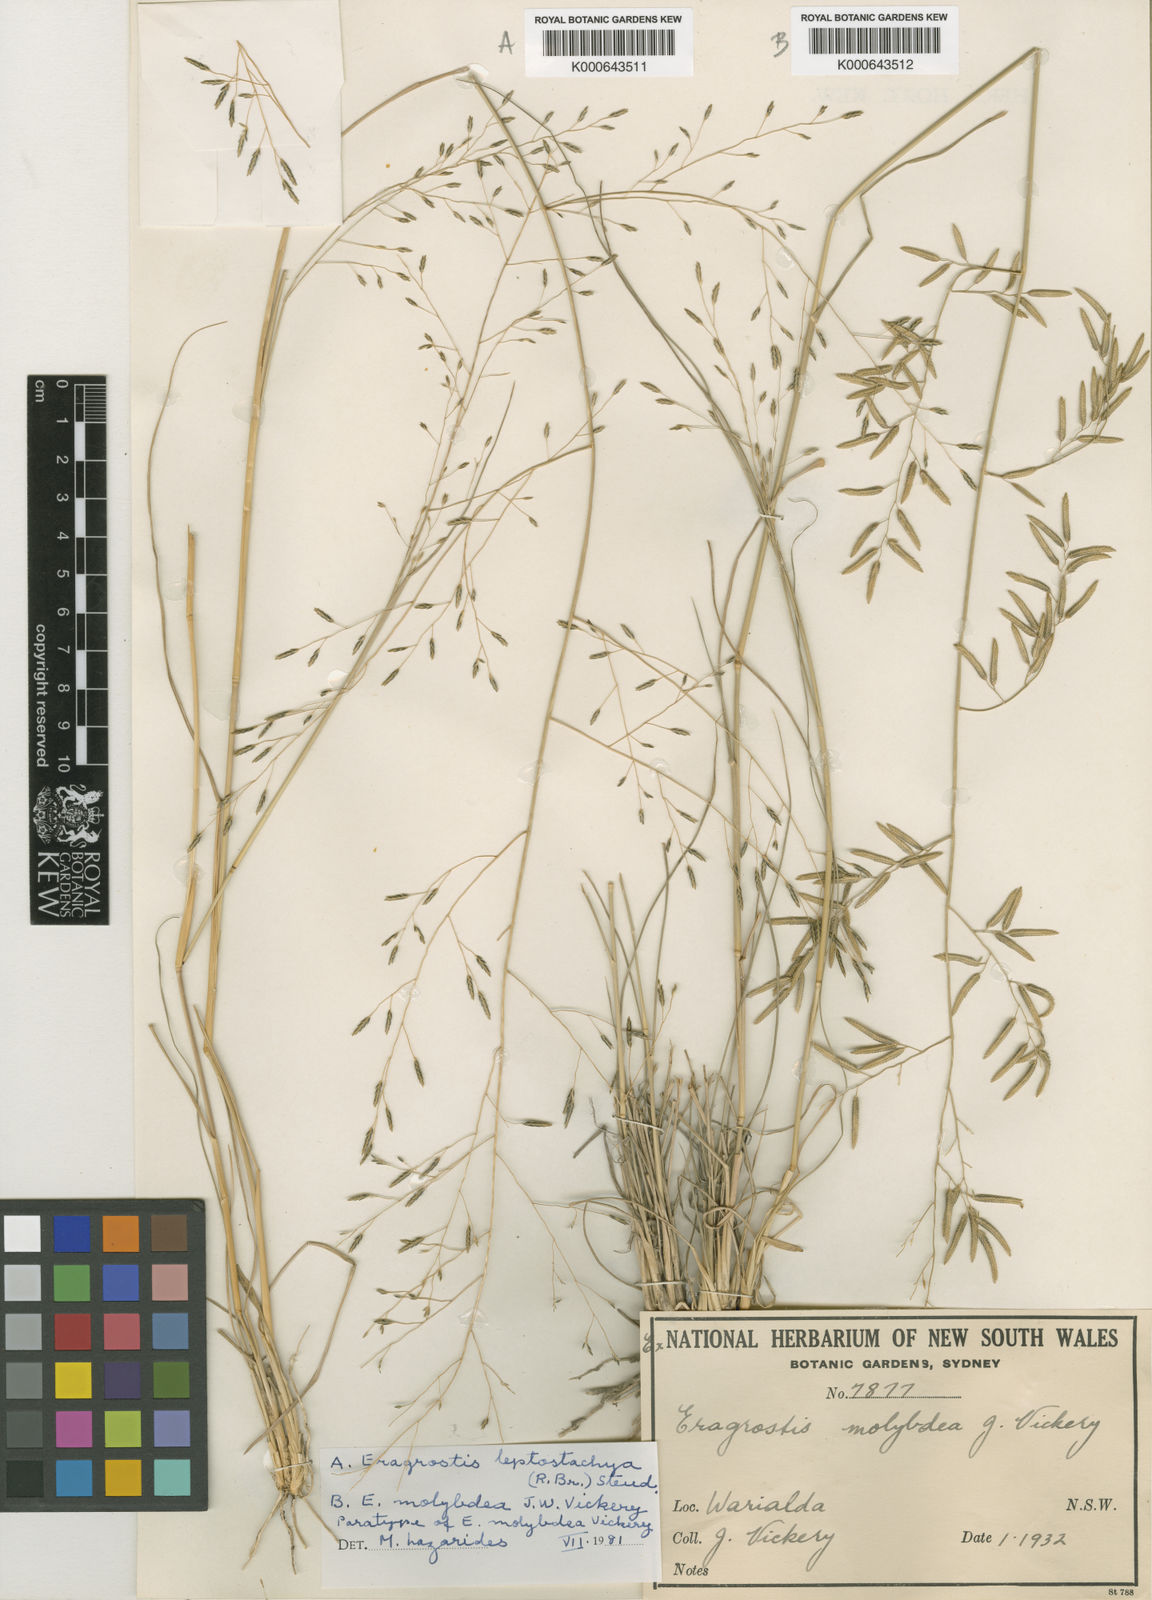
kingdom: Plantae
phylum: Tracheophyta
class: Liliopsida
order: Poales
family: Poaceae
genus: Eragrostis
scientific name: Eragrostis leptostachya
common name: Australian lovegrass
